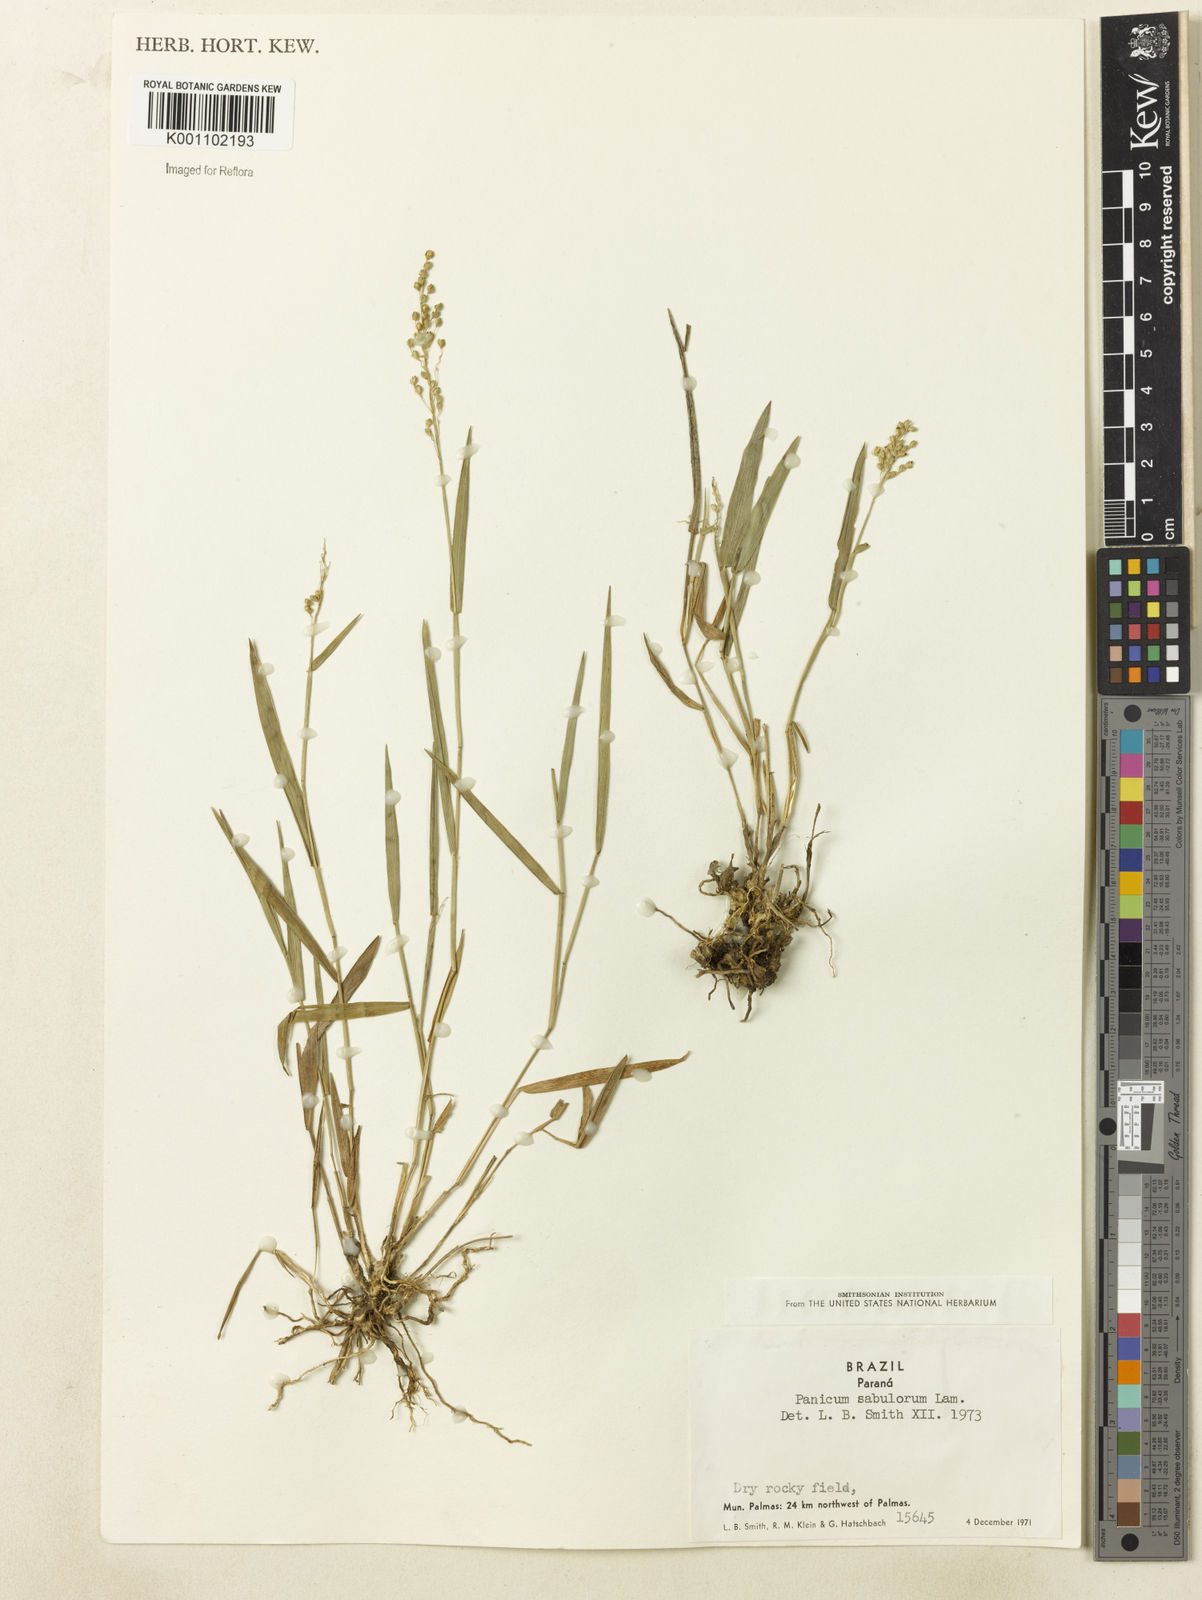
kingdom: Plantae
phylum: Tracheophyta
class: Liliopsida
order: Poales
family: Poaceae
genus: Dichanthelium
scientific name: Dichanthelium sabulorum
